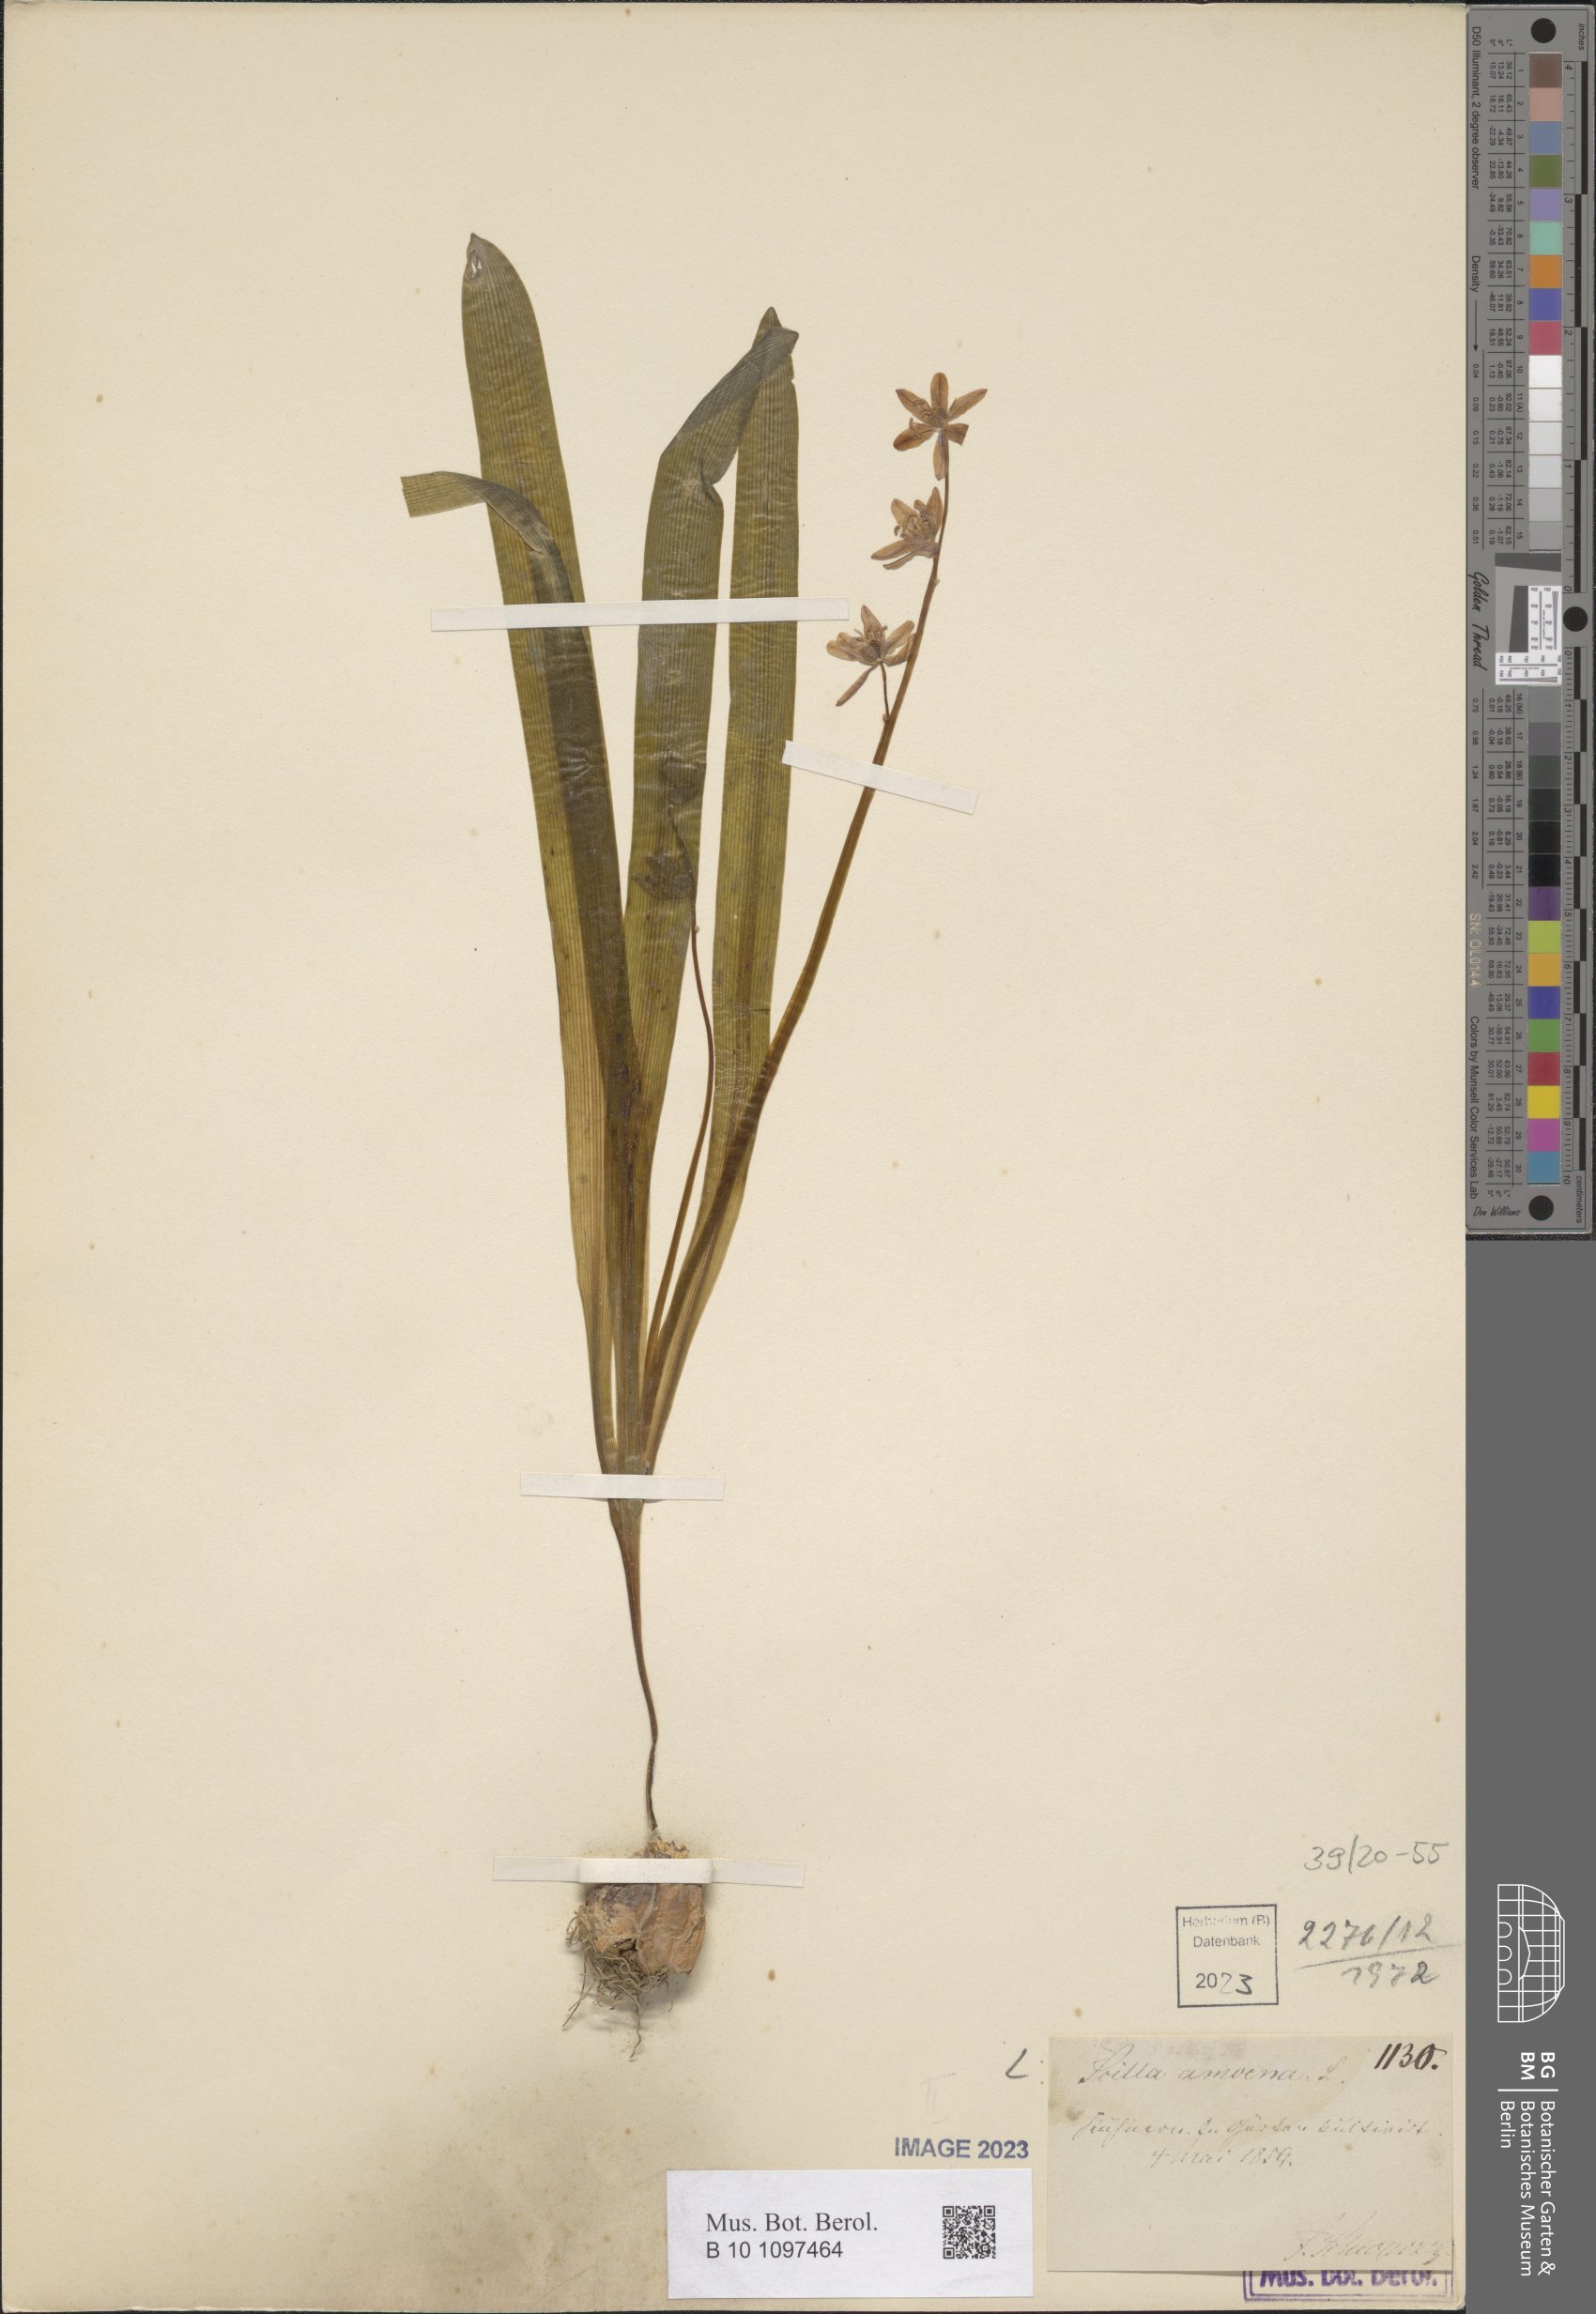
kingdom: Plantae
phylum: Tracheophyta
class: Liliopsida
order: Asparagales
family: Asparagaceae
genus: Scilla
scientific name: Scilla amoena
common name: Star-hyacinth
